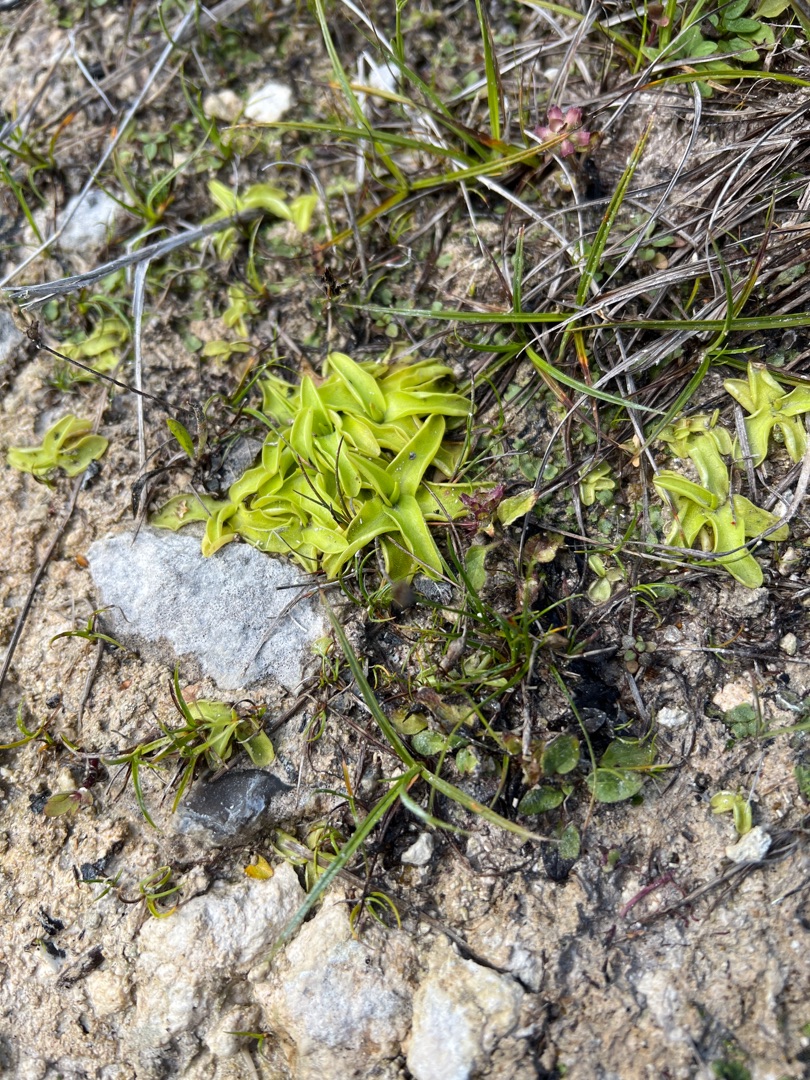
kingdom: Plantae
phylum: Tracheophyta
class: Magnoliopsida
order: Lamiales
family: Lentibulariaceae
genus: Pinguicula
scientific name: Pinguicula vulgaris
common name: Vibefedt
